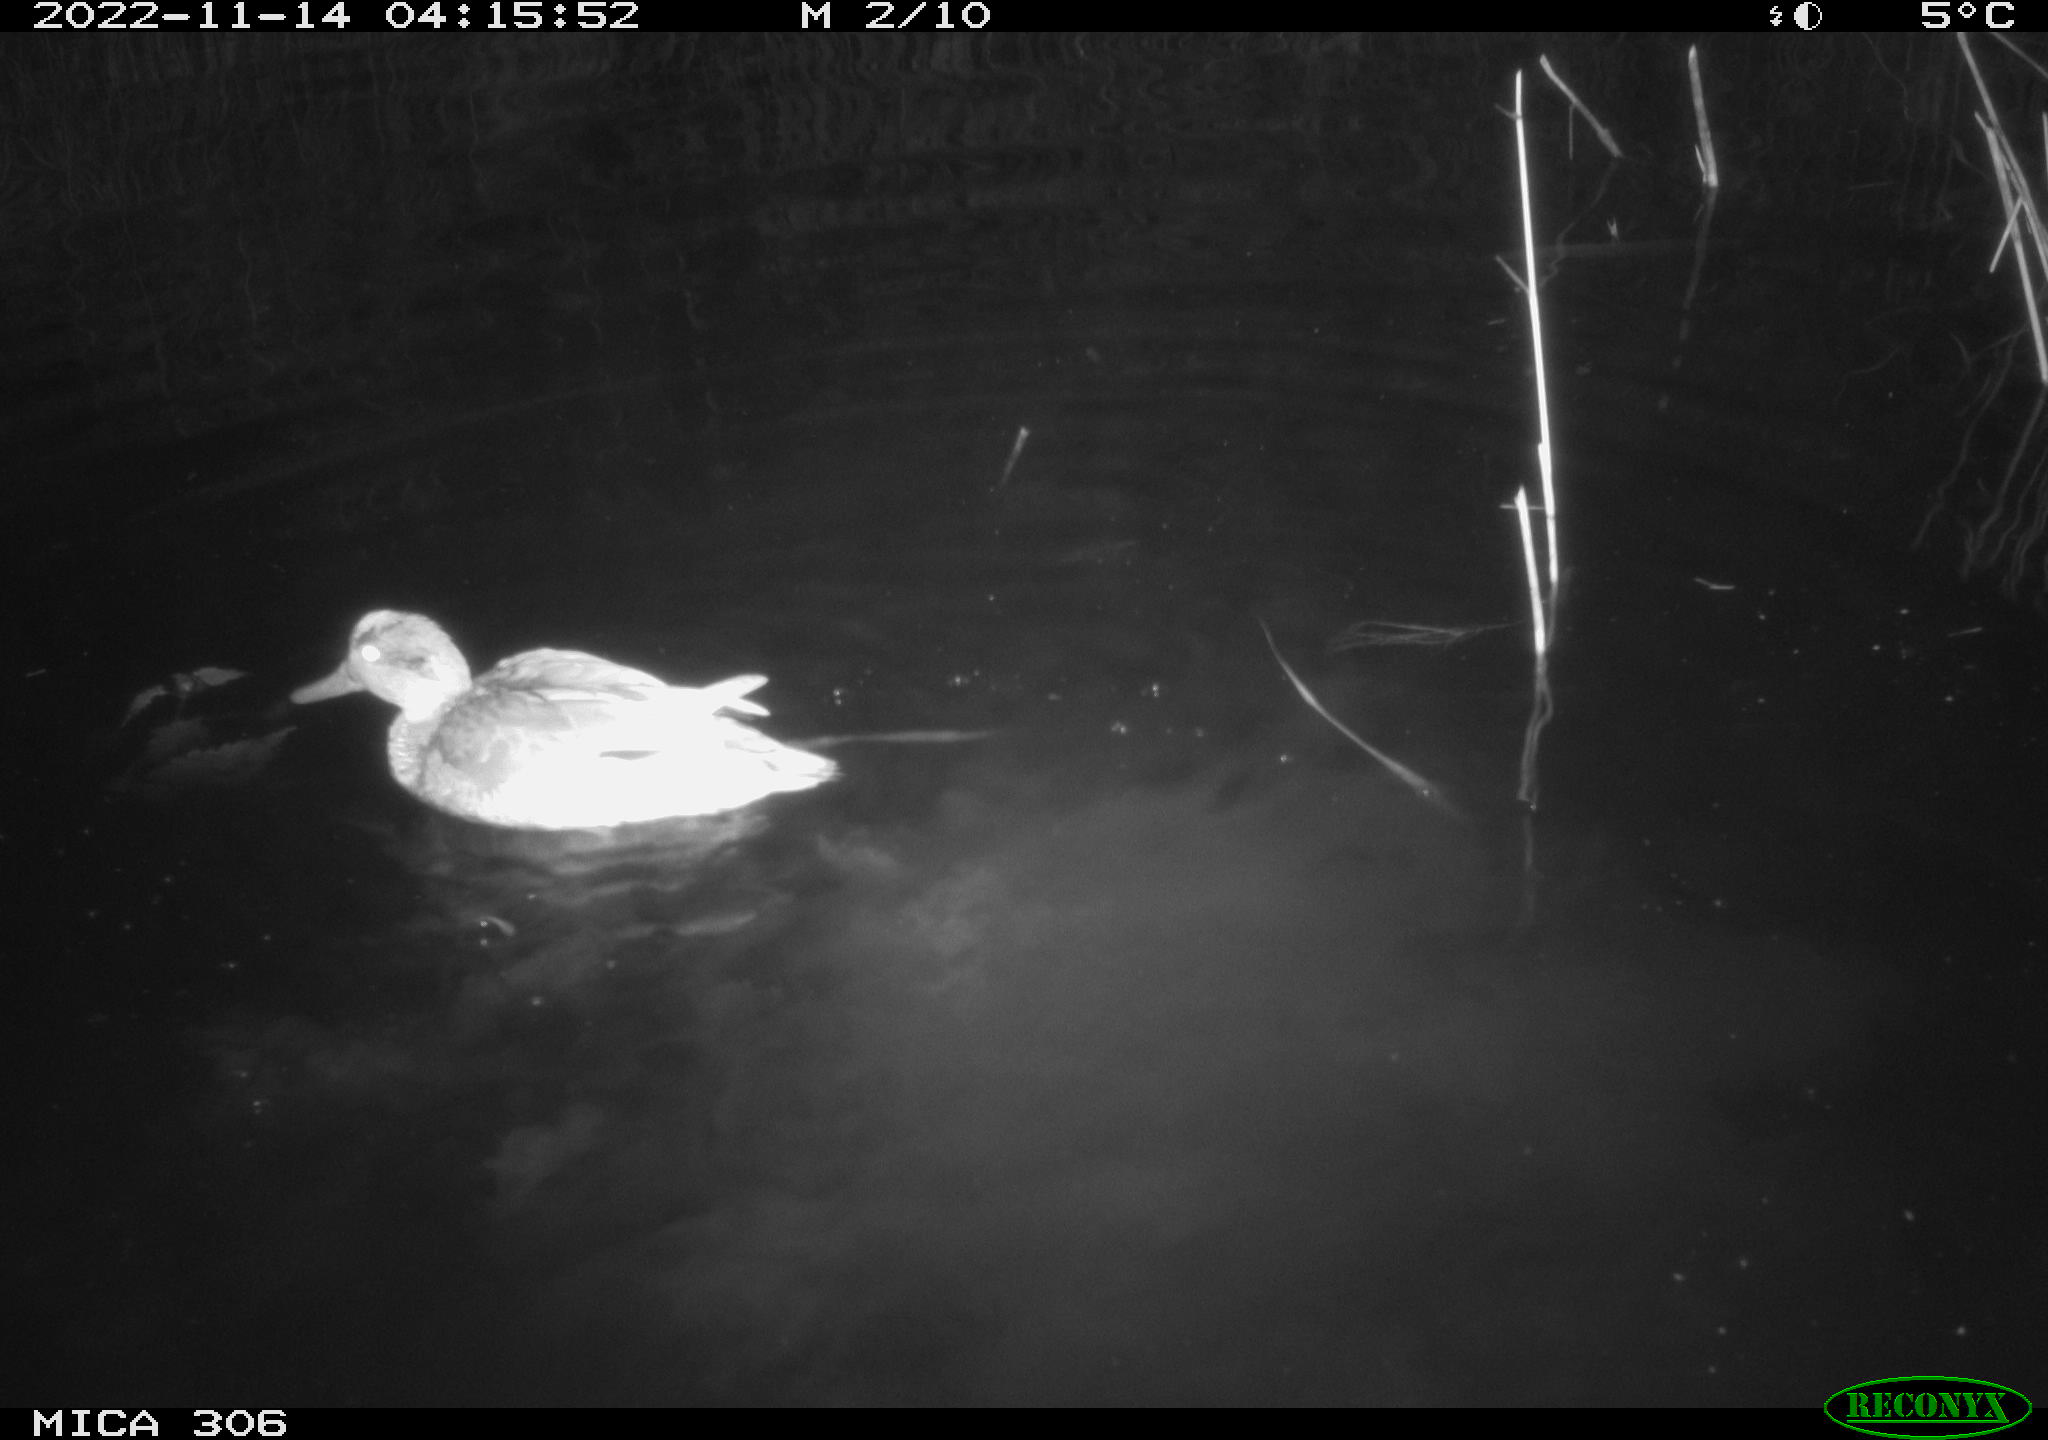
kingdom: Animalia
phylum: Chordata
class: Aves
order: Anseriformes
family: Anatidae
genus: Anas
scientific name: Anas
